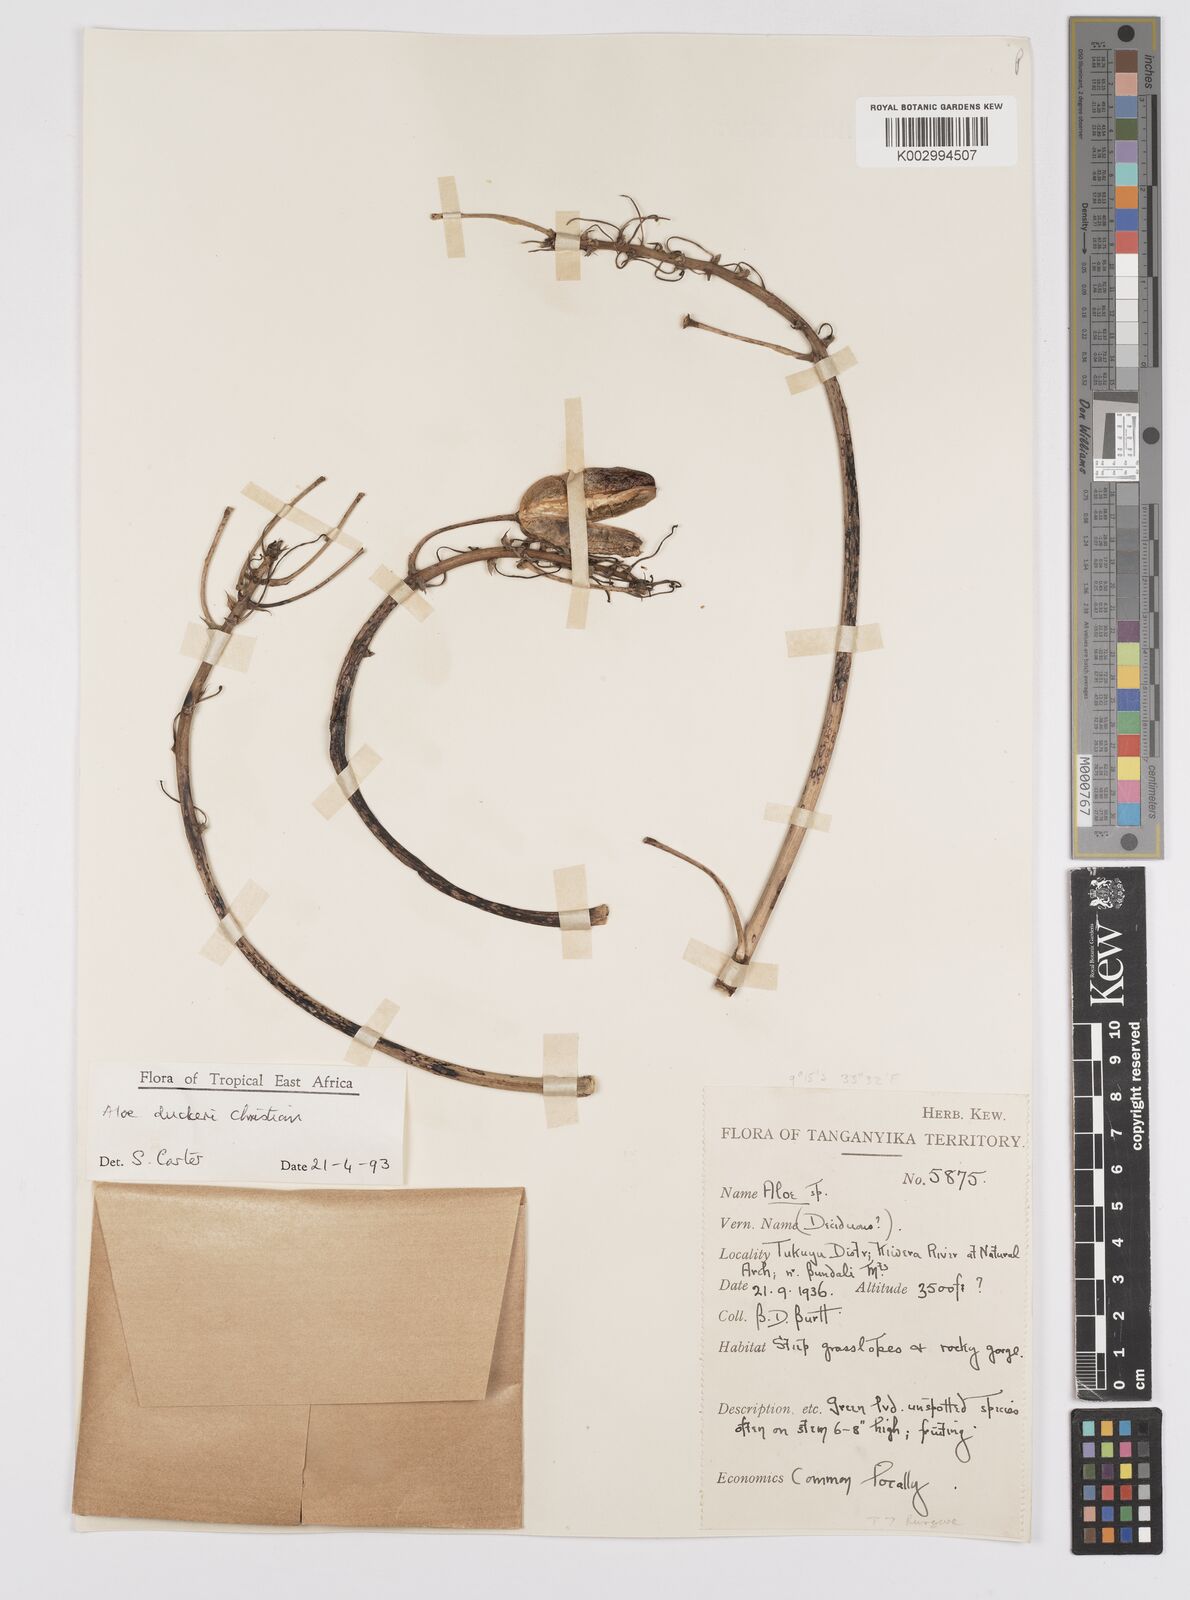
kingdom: Plantae
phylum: Tracheophyta
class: Liliopsida
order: Asparagales
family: Asphodelaceae
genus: Aloe
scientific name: Aloe duckeri
